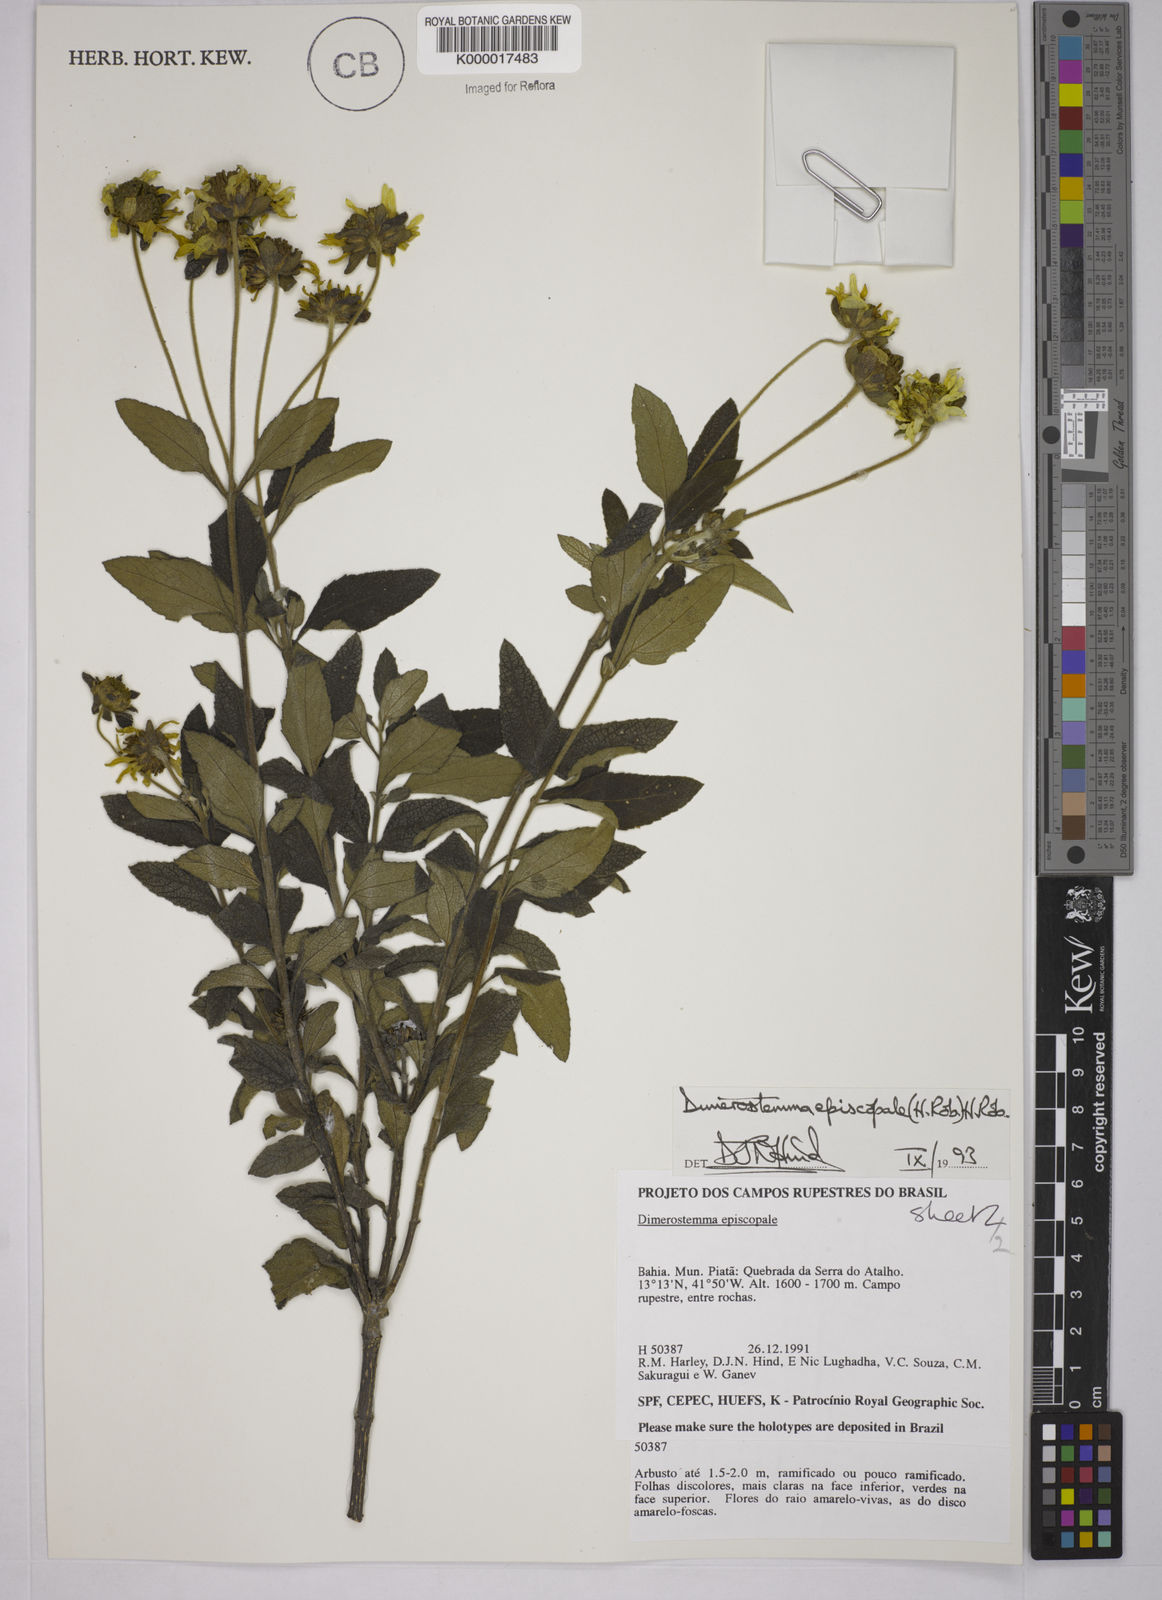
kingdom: Plantae
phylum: Tracheophyta
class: Magnoliopsida
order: Asterales
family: Asteraceae
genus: Dimerostemma
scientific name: Dimerostemma episcopale
